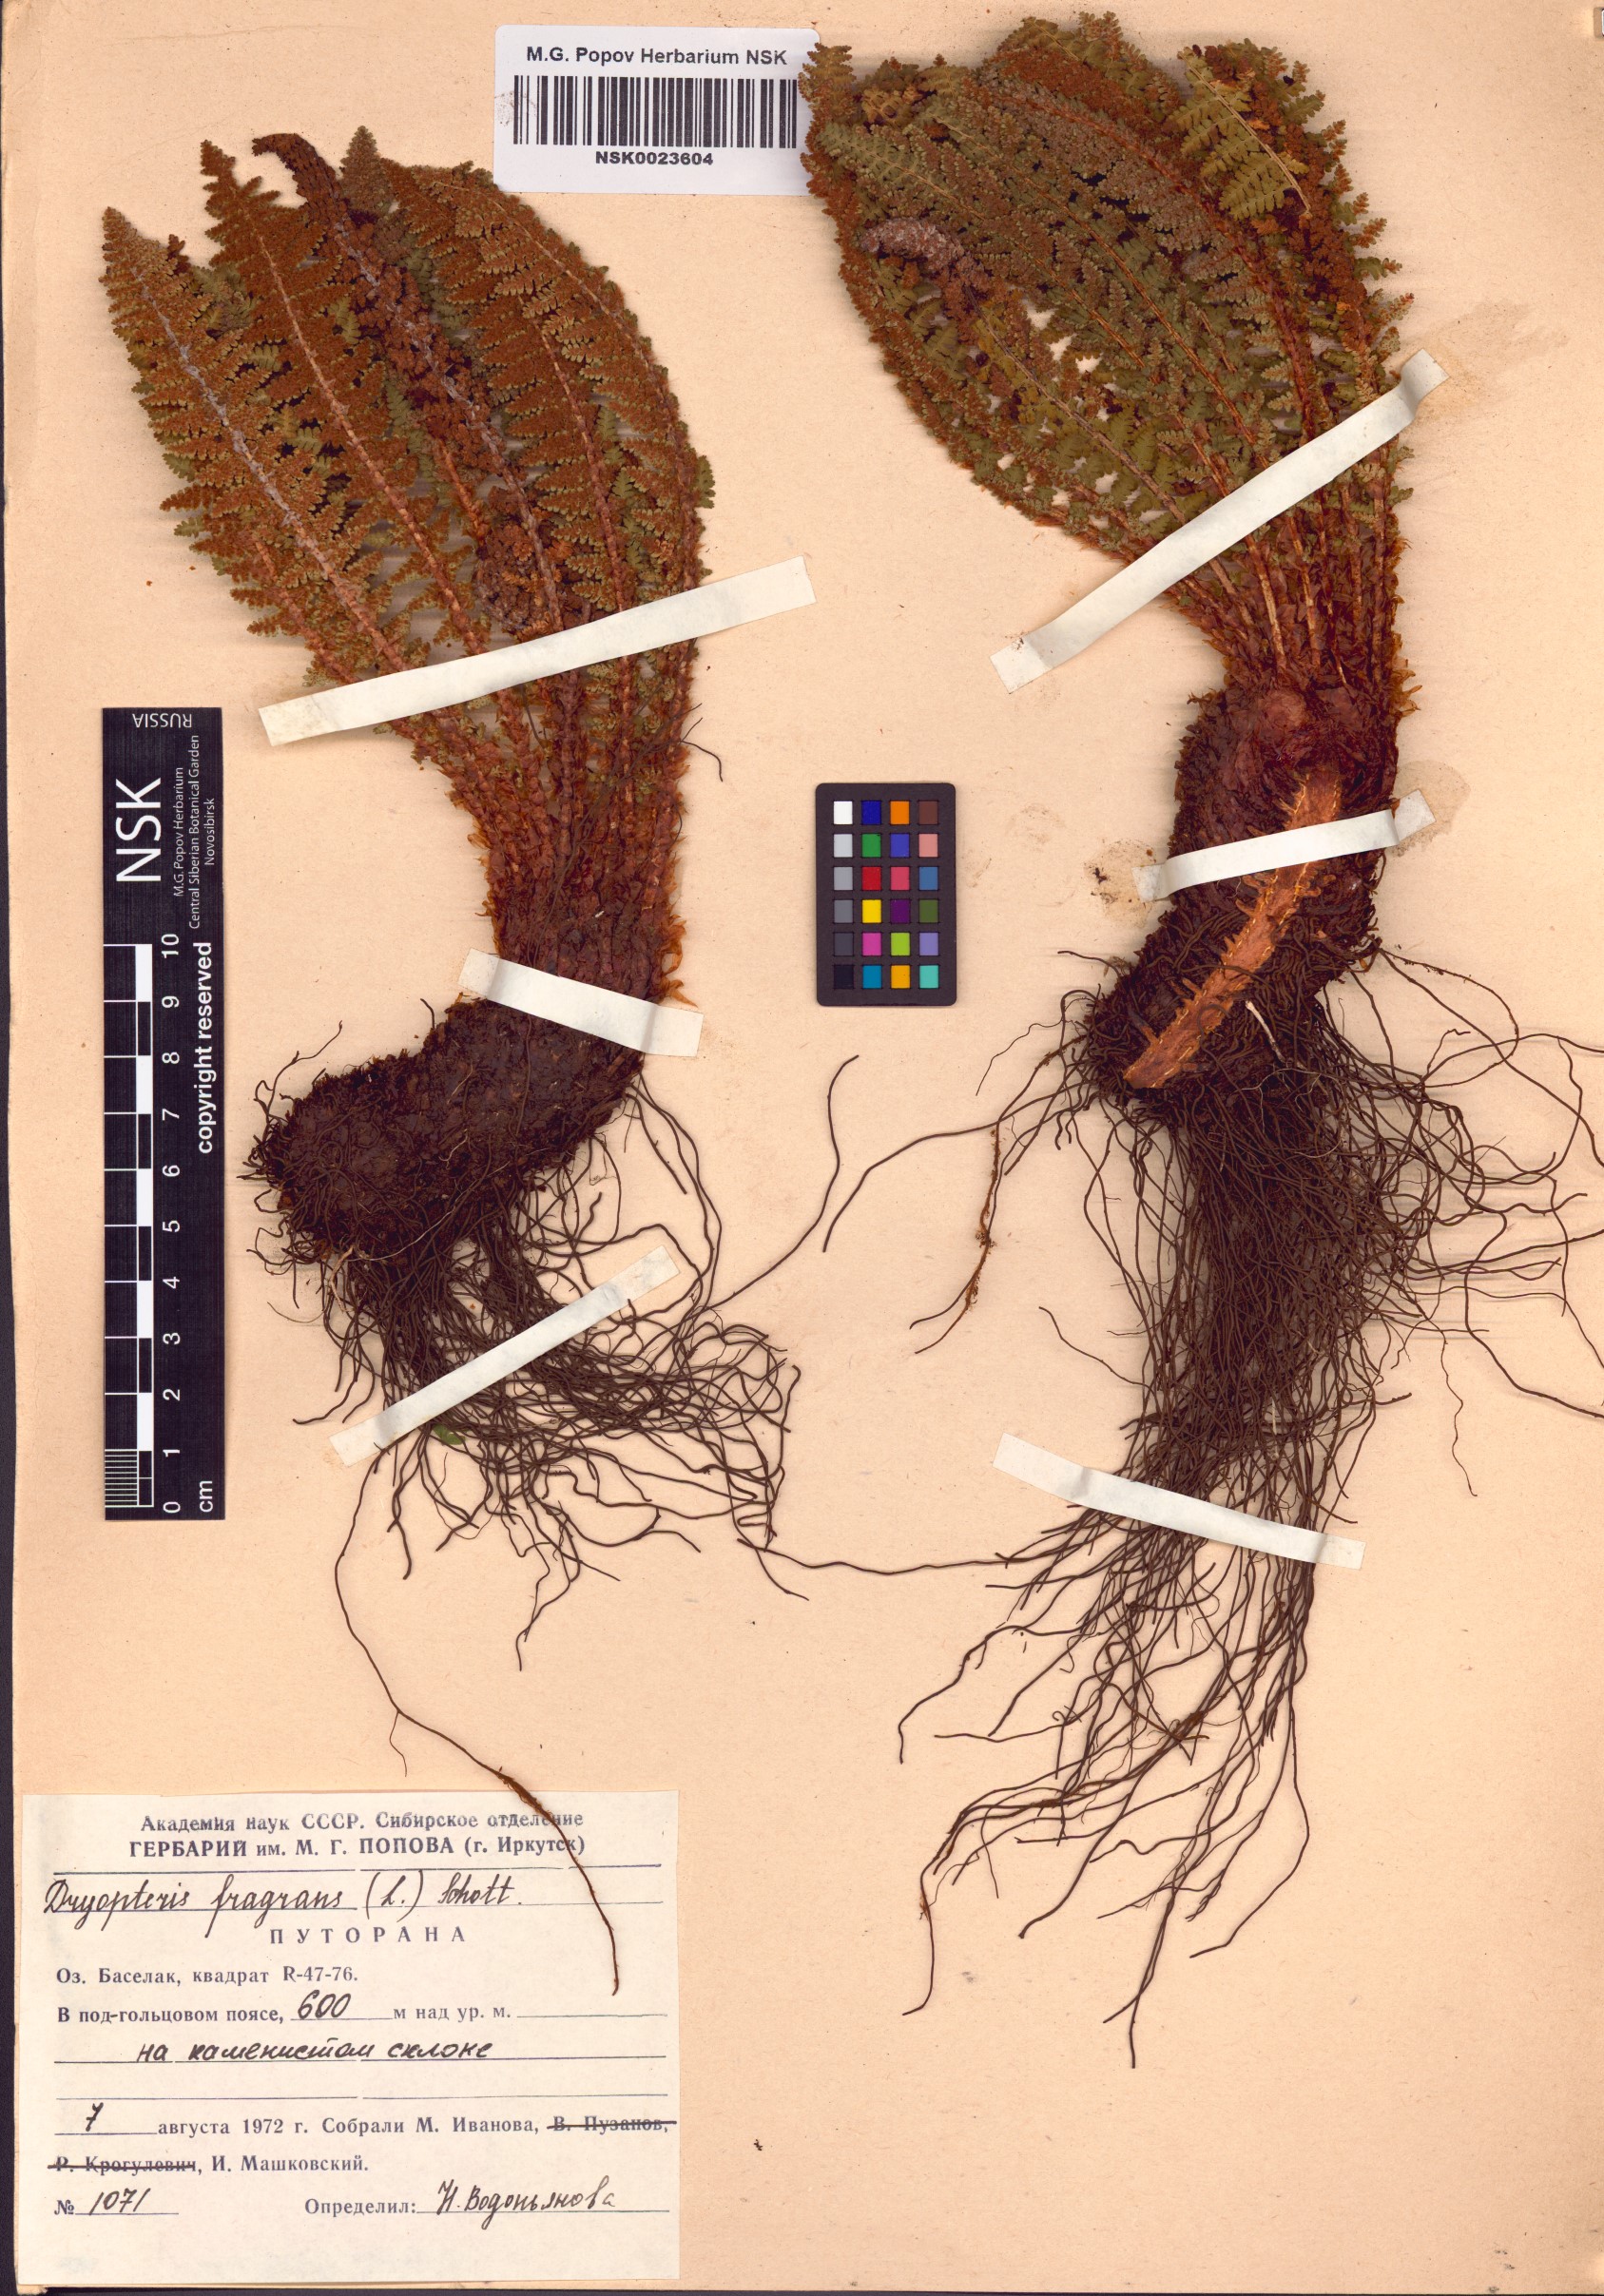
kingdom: Plantae
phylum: Tracheophyta
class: Polypodiopsida
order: Polypodiales
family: Dryopteridaceae
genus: Dryopteris
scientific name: Dryopteris fragrans
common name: Fragrant wood fern
